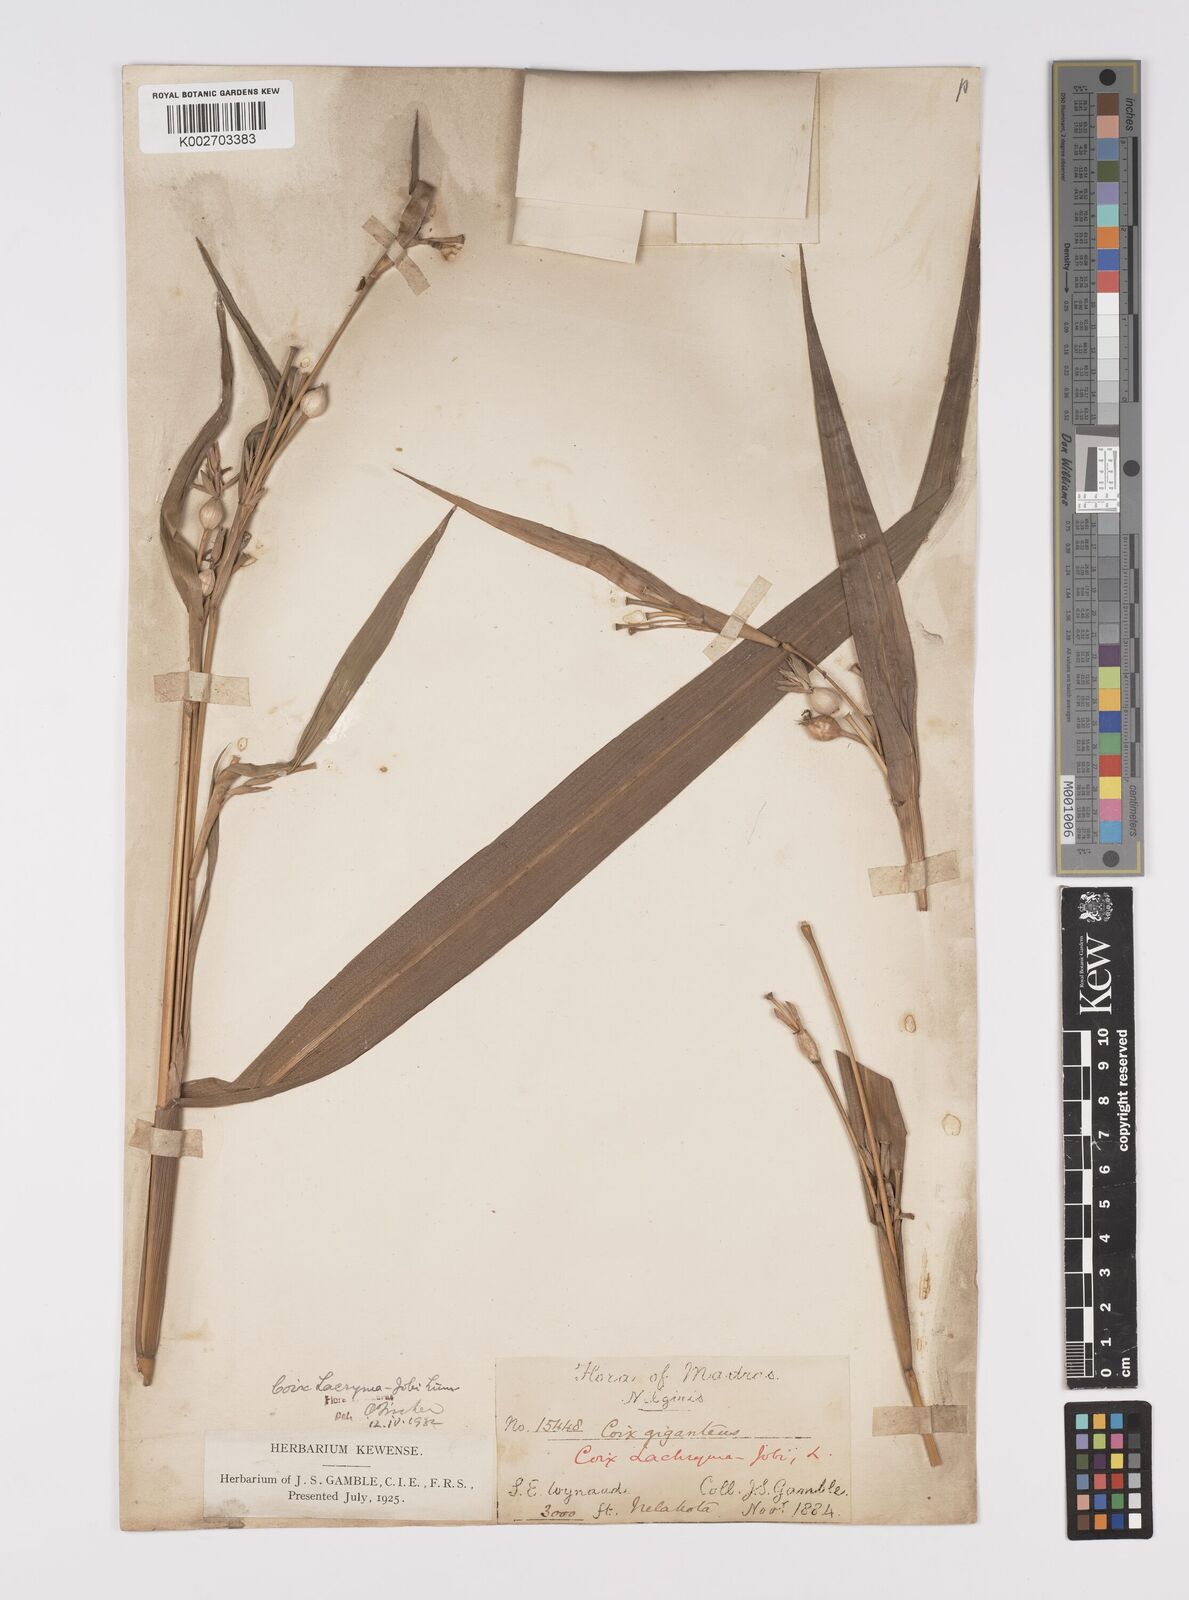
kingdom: Plantae
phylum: Tracheophyta
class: Liliopsida
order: Poales
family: Poaceae
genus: Coix
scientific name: Coix lacryma-jobi
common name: Job's tears
